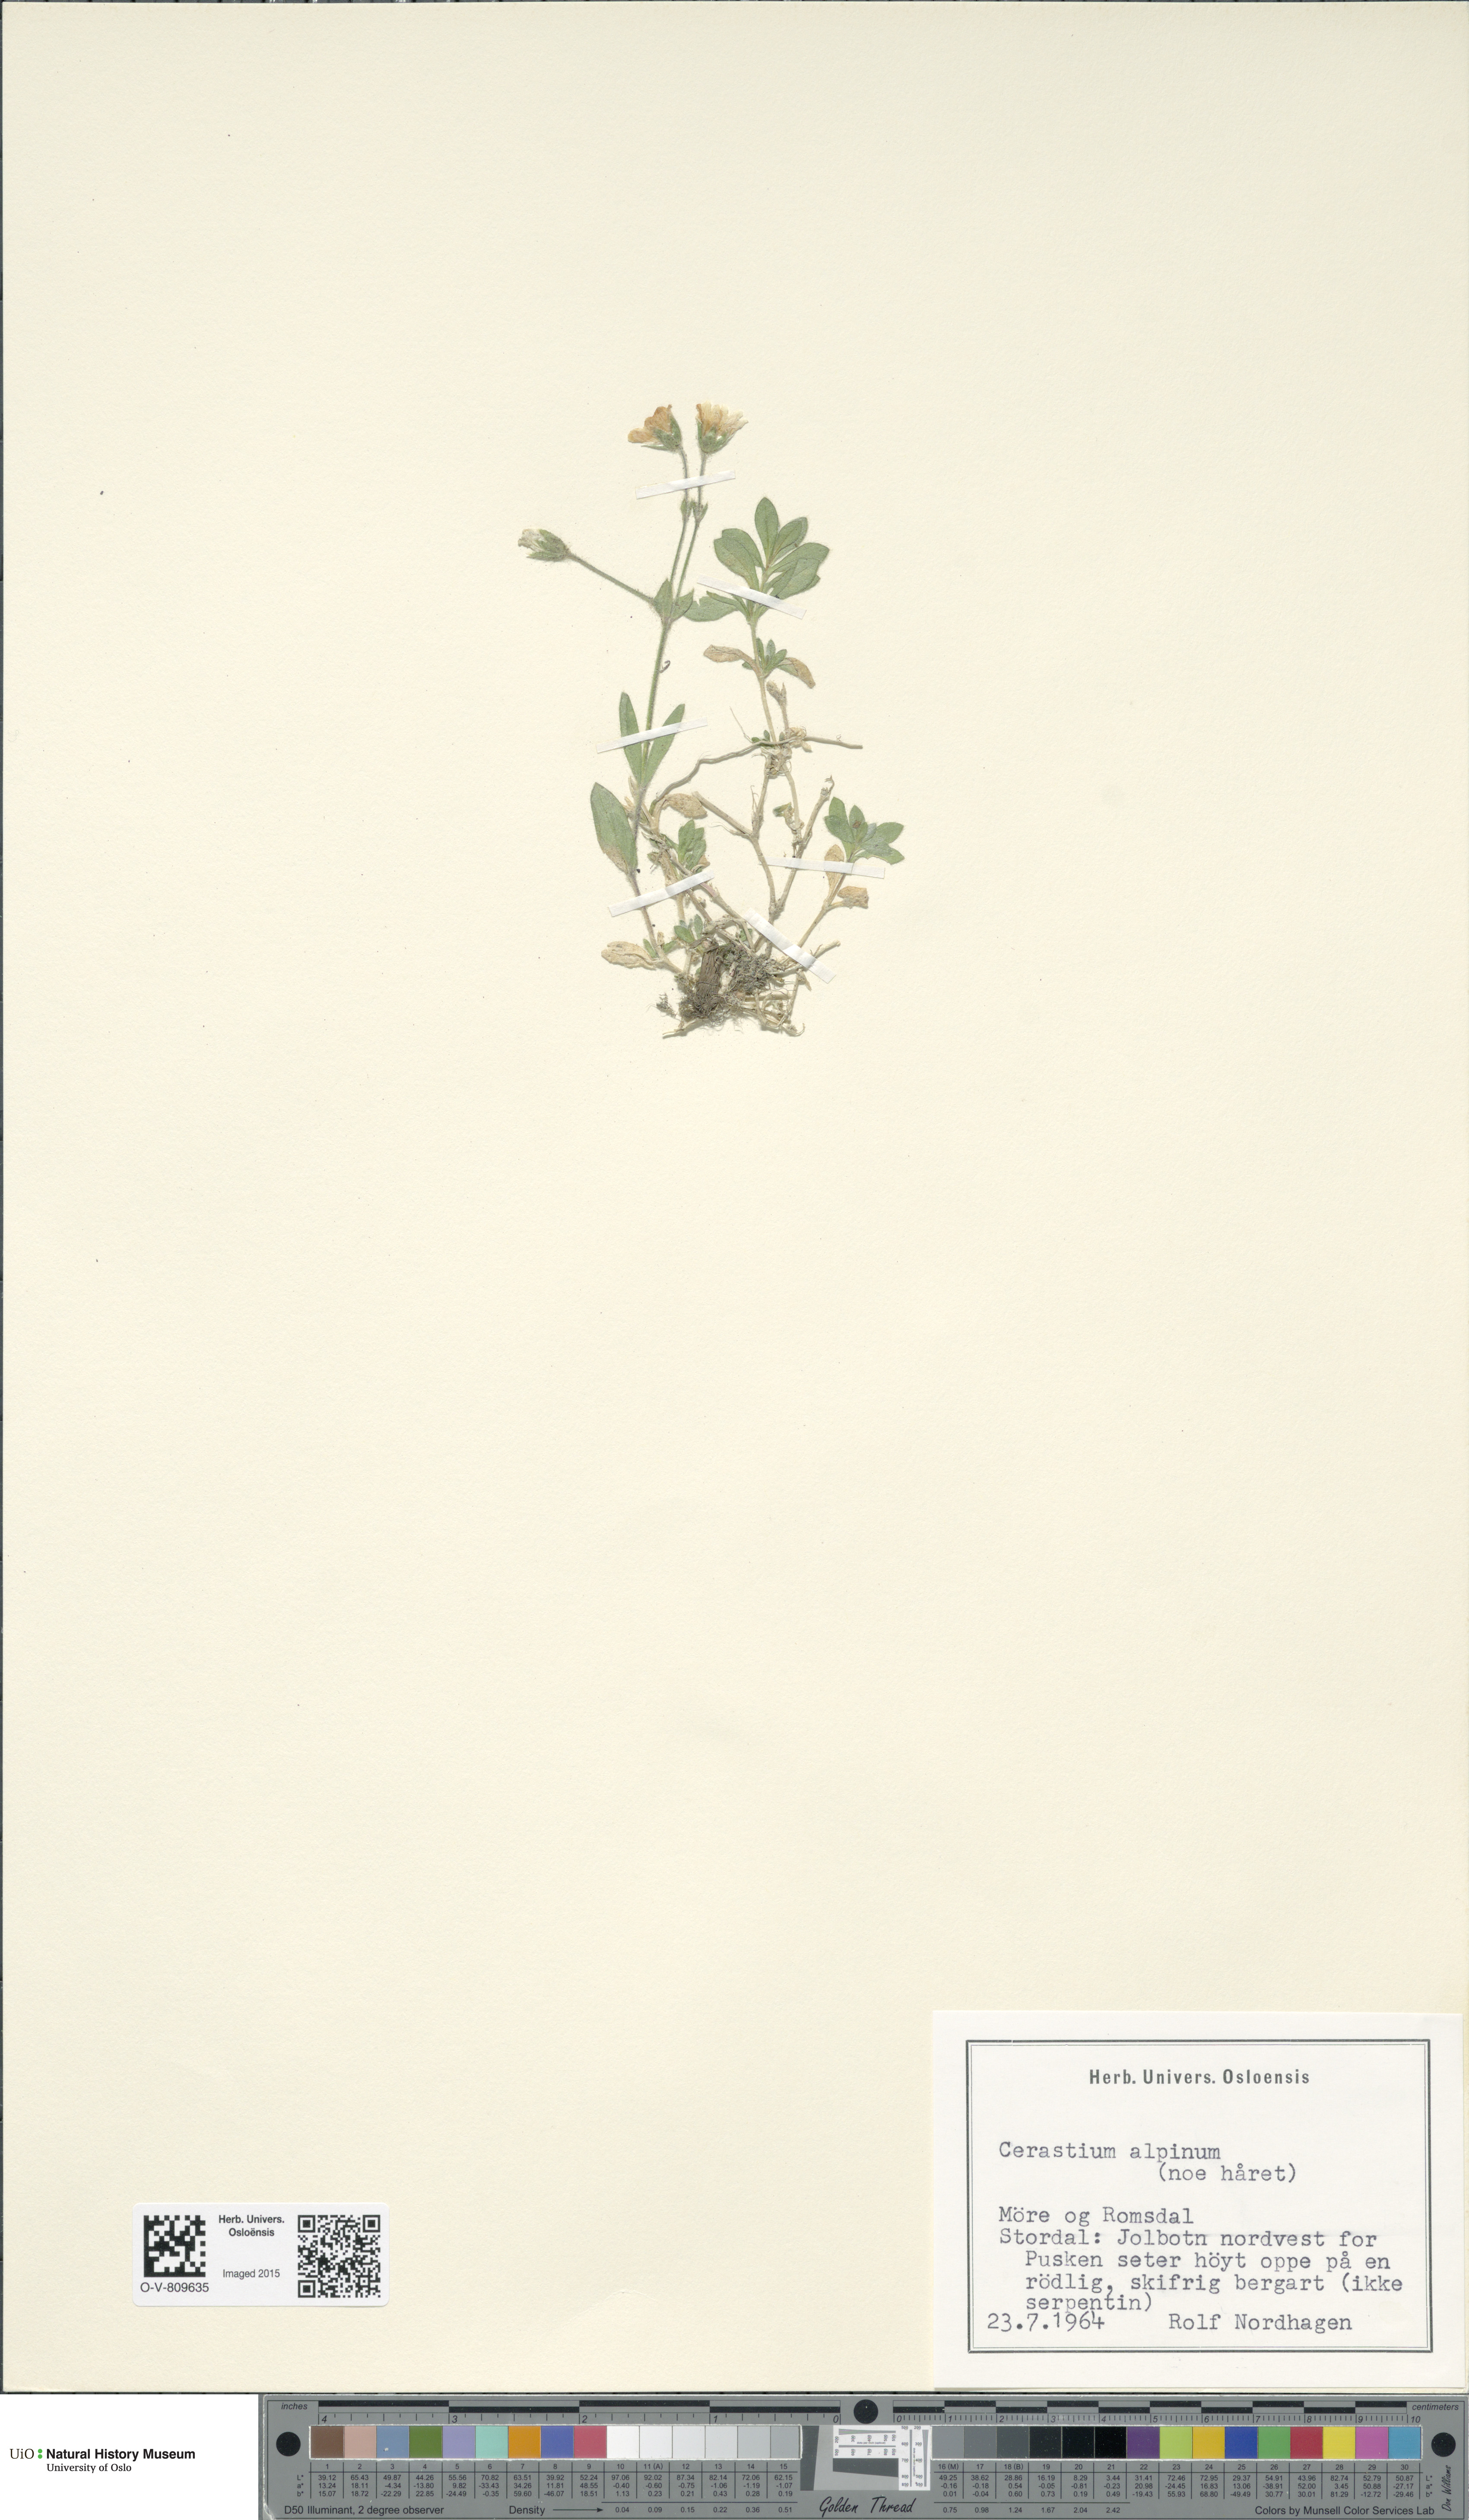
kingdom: Plantae
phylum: Tracheophyta
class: Magnoliopsida
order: Caryophyllales
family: Caryophyllaceae
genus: Cerastium
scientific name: Cerastium alpinum
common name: Alpine mouse-ear
